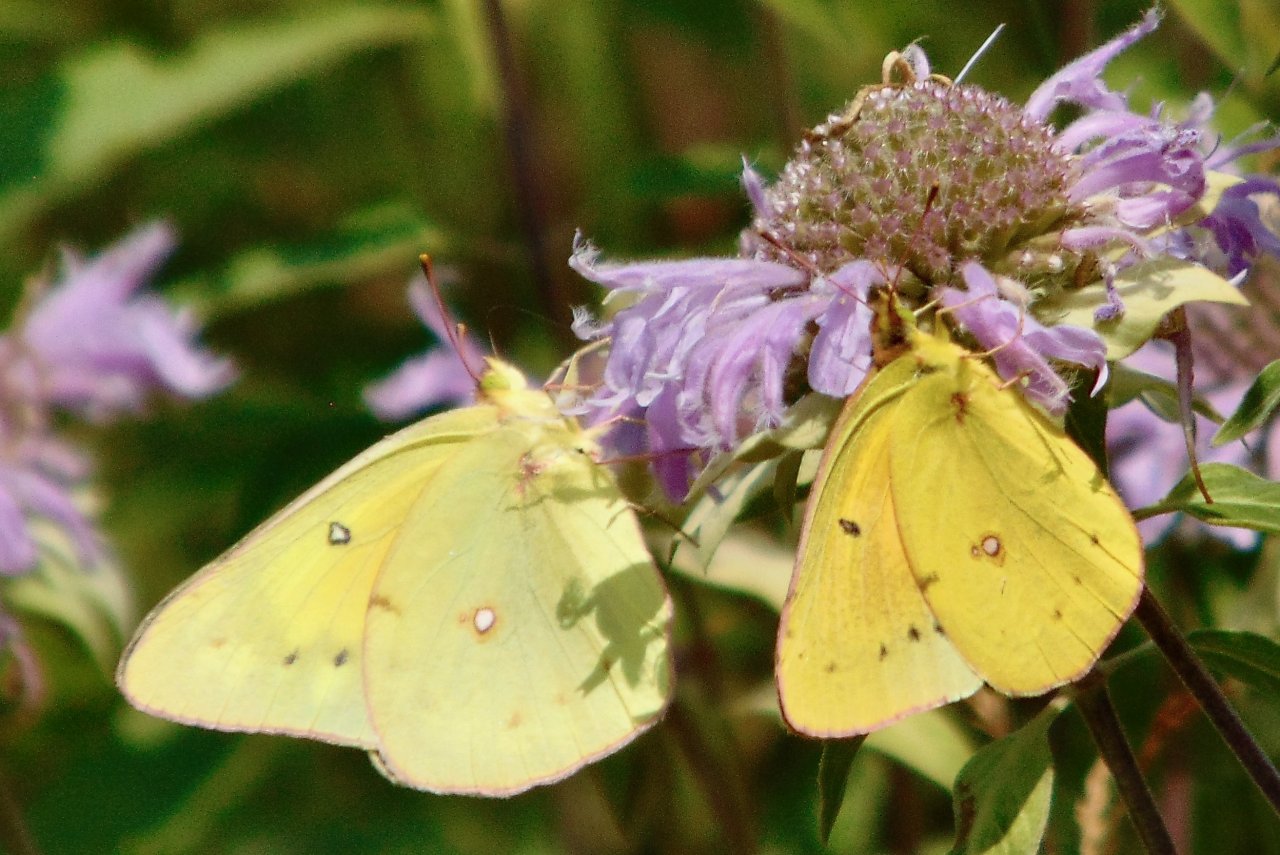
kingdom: Animalia
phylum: Arthropoda
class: Insecta
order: Lepidoptera
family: Pieridae
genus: Colias
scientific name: Colias eurytheme
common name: Orange Sulphur
